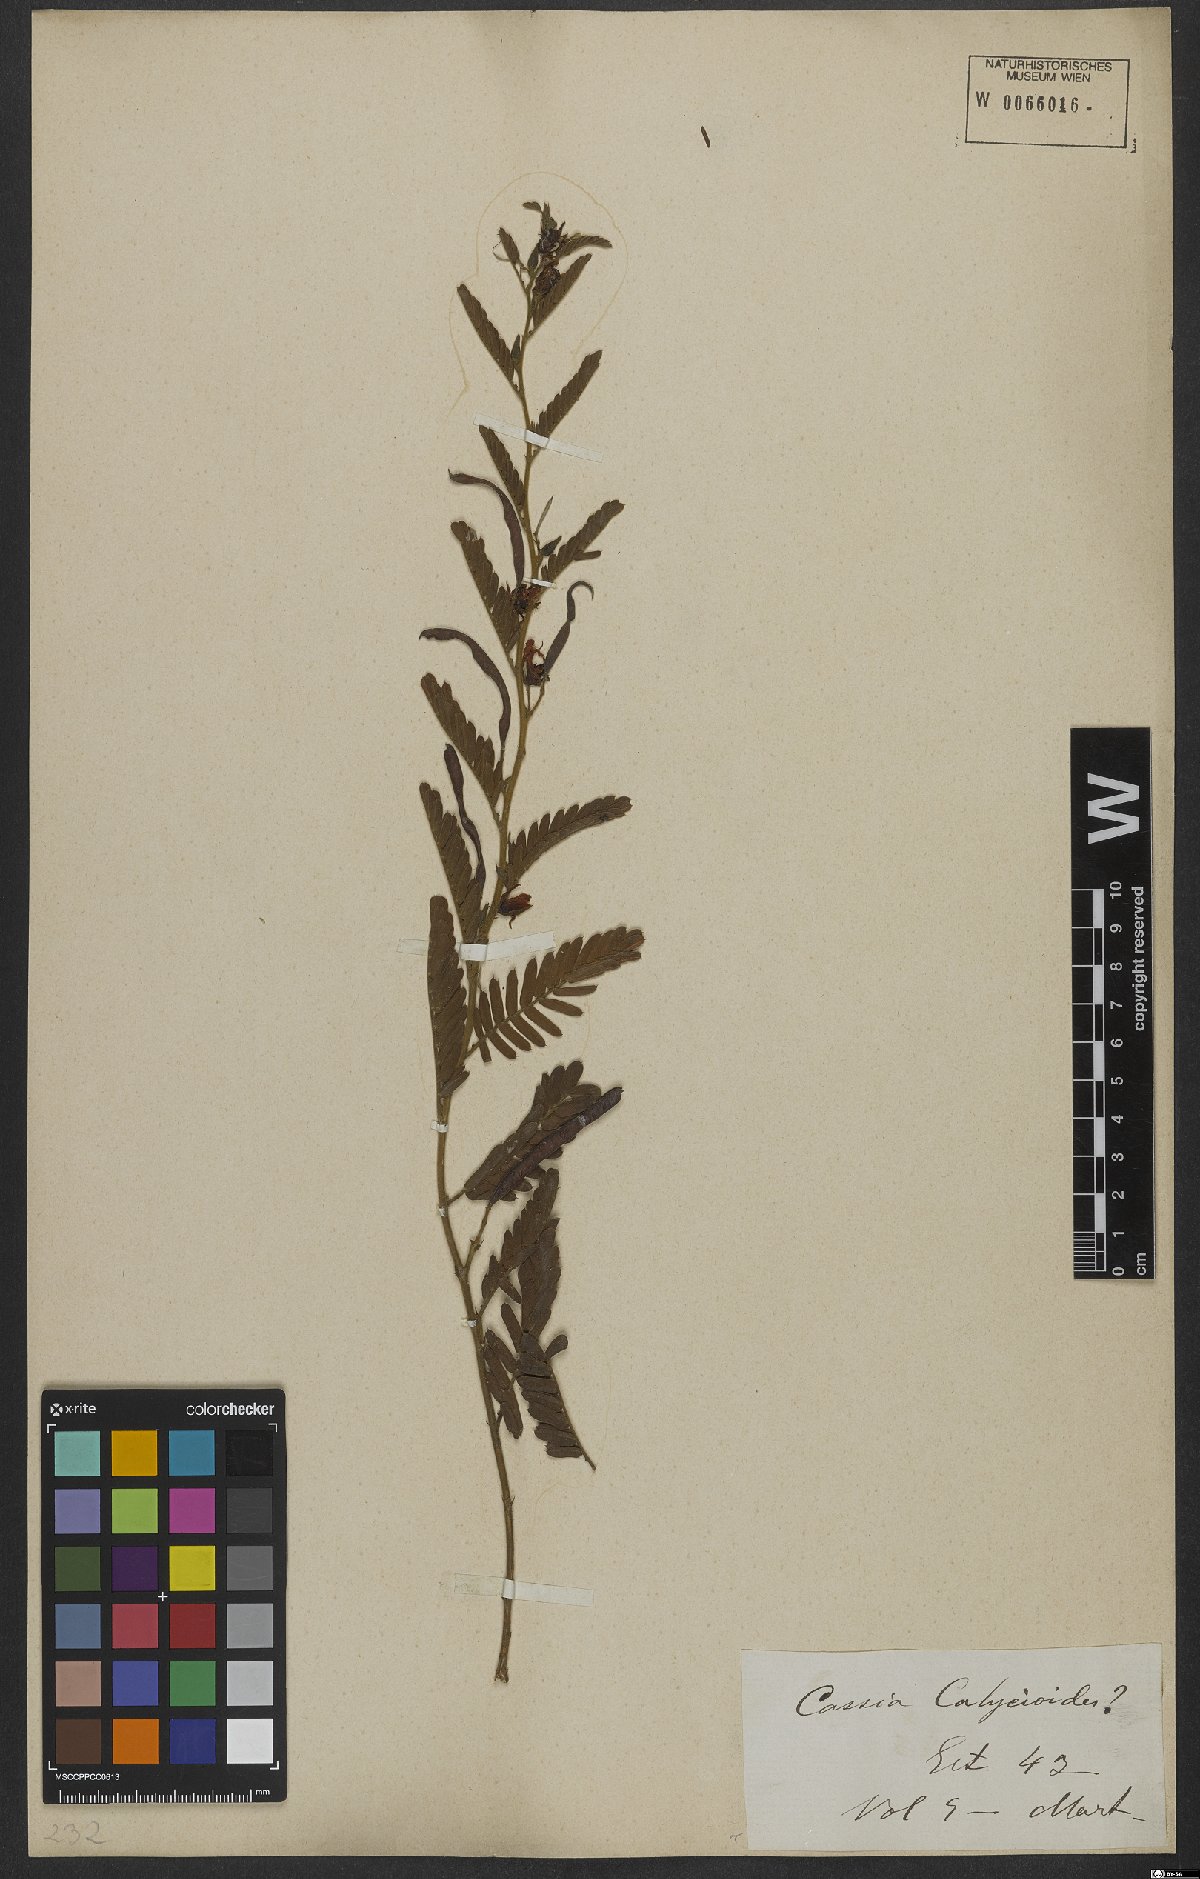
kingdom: Plantae
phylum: Tracheophyta
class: Magnoliopsida
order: Fabales
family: Fabaceae
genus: Chamaecrista
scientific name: Chamaecrista calycioides
